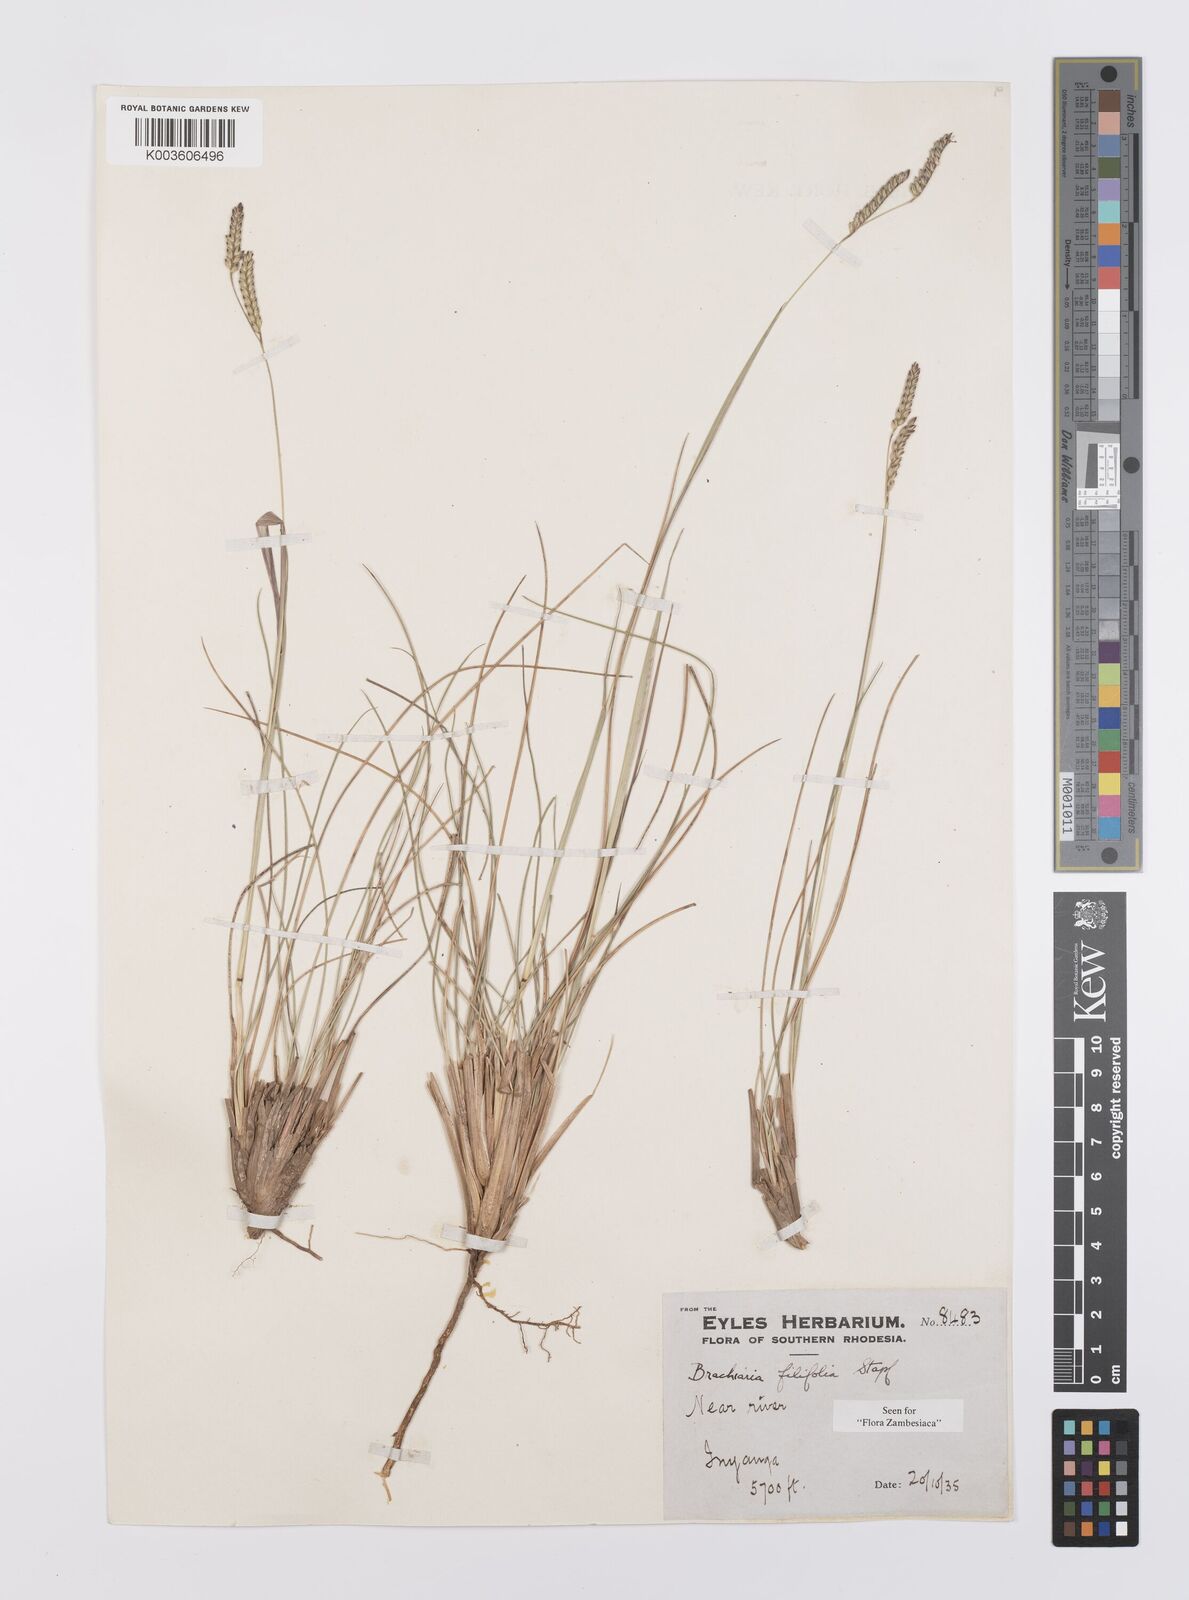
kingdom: Plantae
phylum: Tracheophyta
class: Liliopsida
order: Poales
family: Poaceae
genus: Urochloa
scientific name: Urochloa subulifolia
